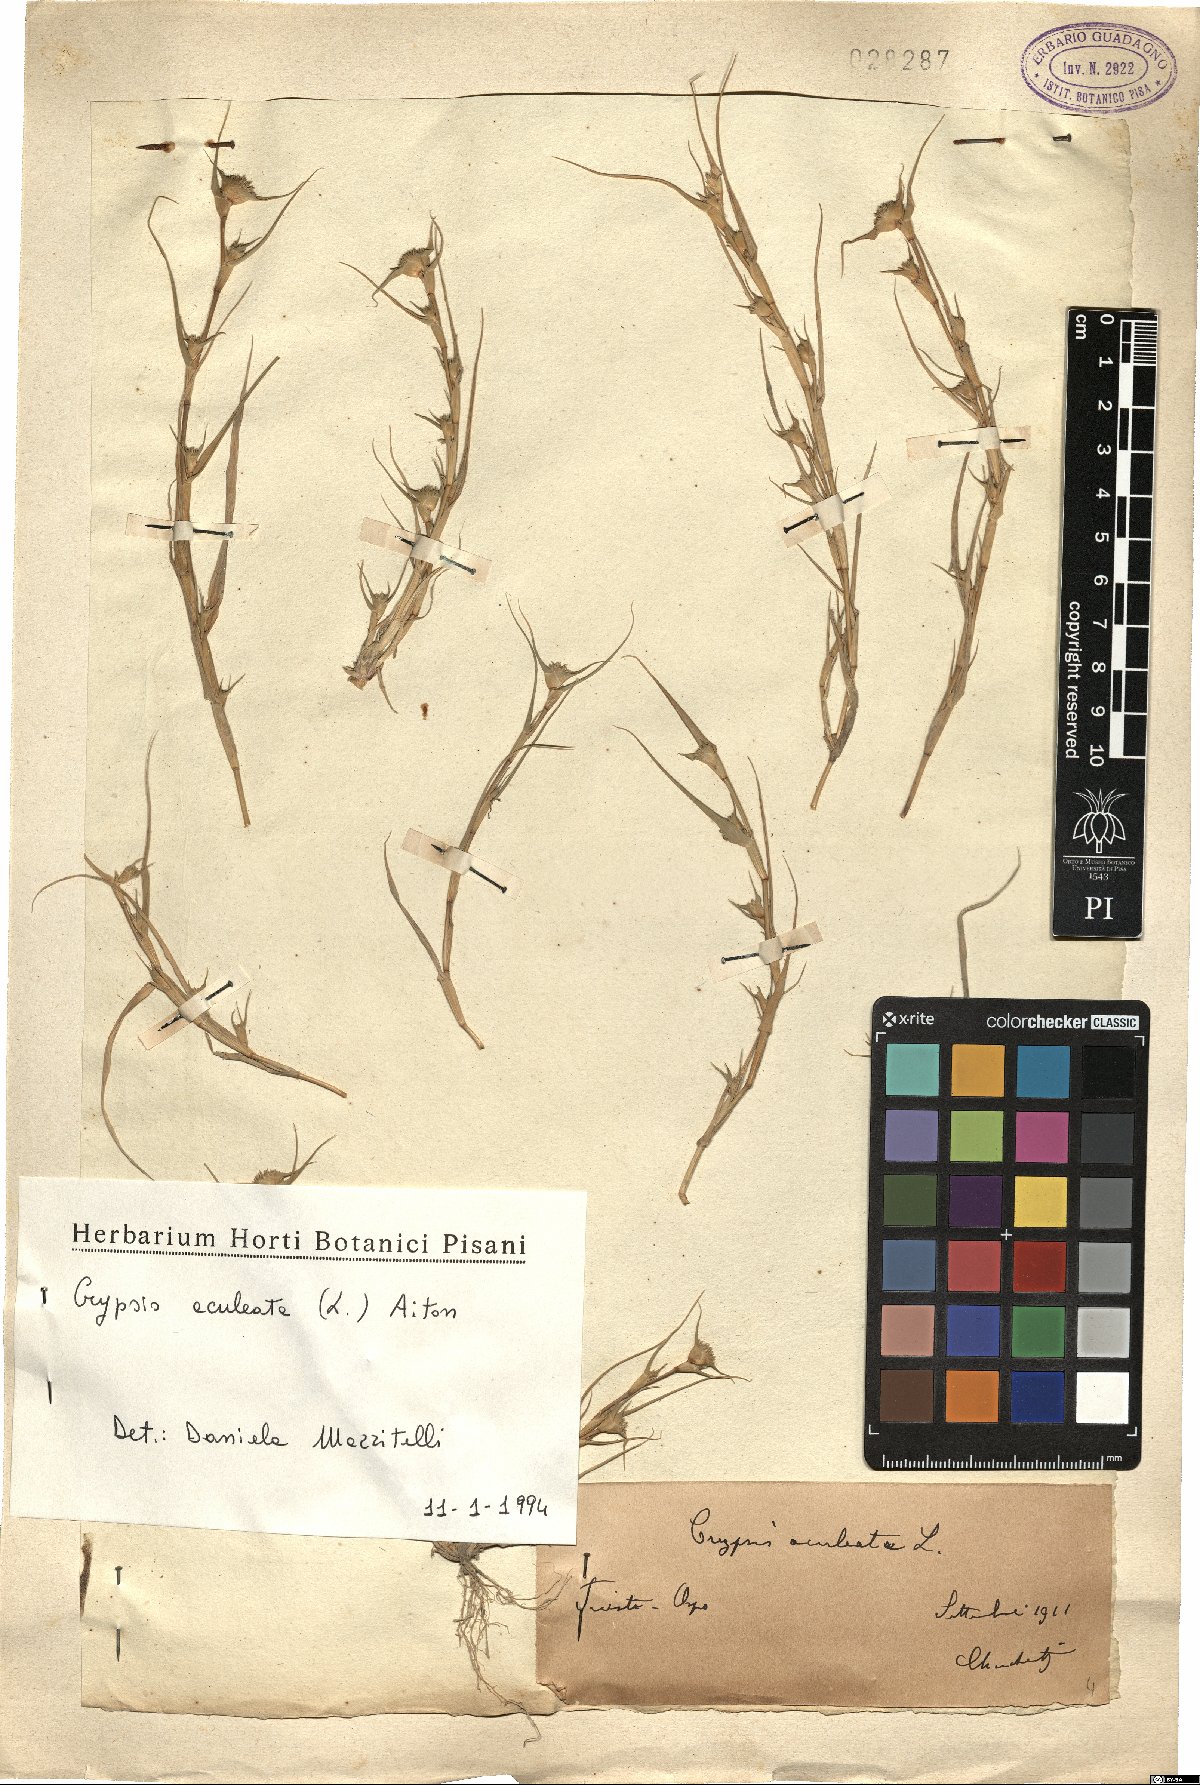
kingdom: Plantae
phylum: Tracheophyta
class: Liliopsida
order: Poales
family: Poaceae
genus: Sporobolus
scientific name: Sporobolus aculeatus
